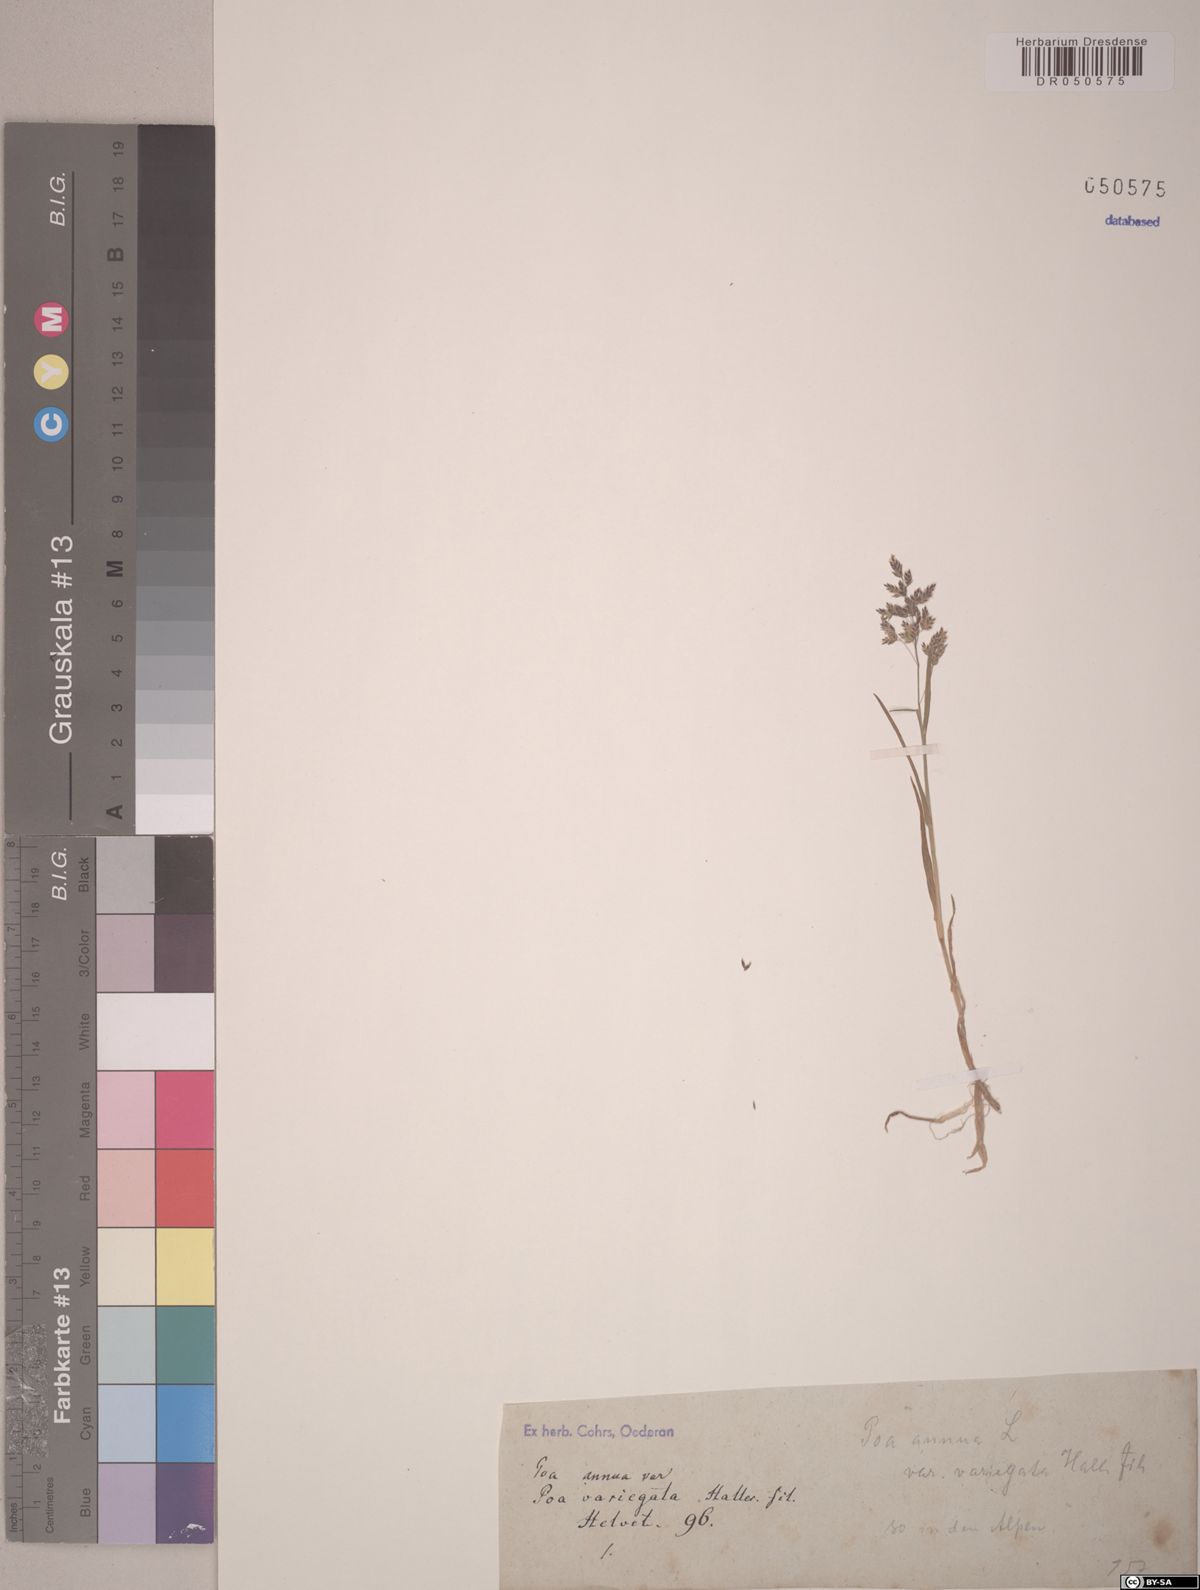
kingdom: Plantae
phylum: Tracheophyta
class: Liliopsida
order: Poales
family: Poaceae
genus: Poa
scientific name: Poa annua
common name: Annual bluegrass
